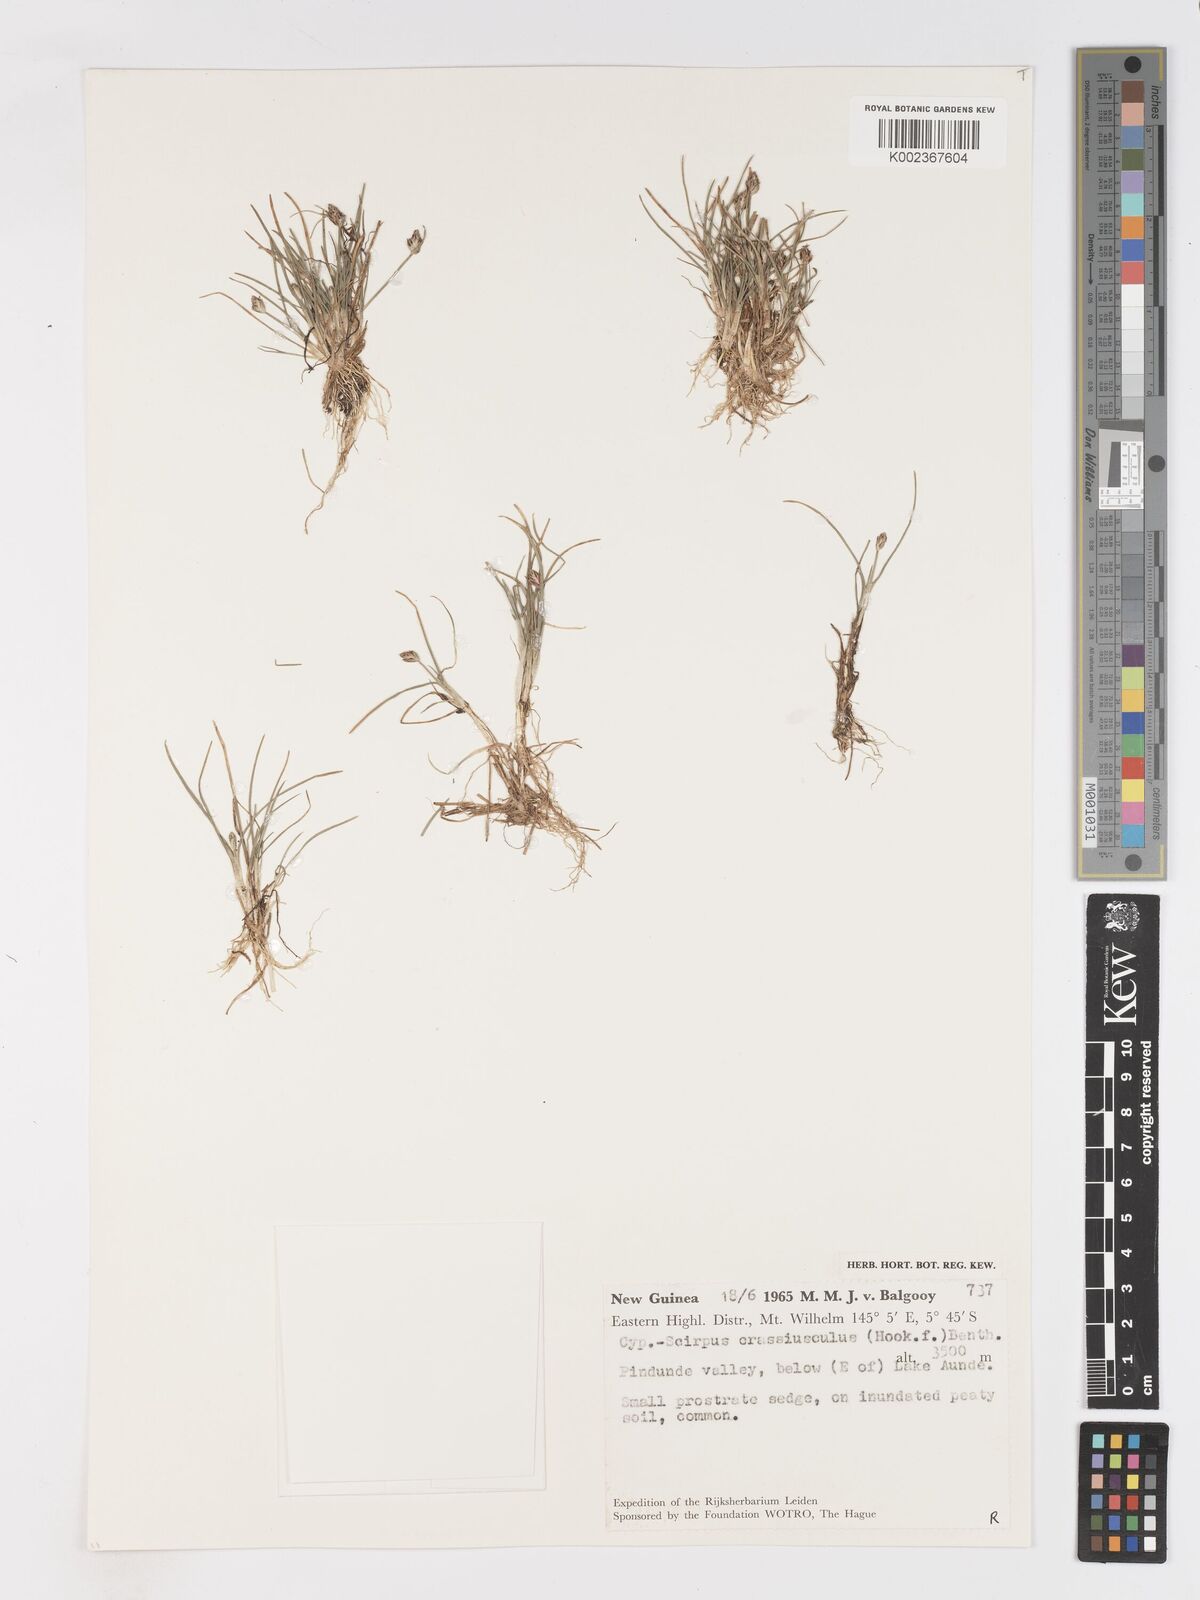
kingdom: Plantae
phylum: Tracheophyta
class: Liliopsida
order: Poales
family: Cyperaceae
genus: Isolepis
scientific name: Isolepis crassiuscula
